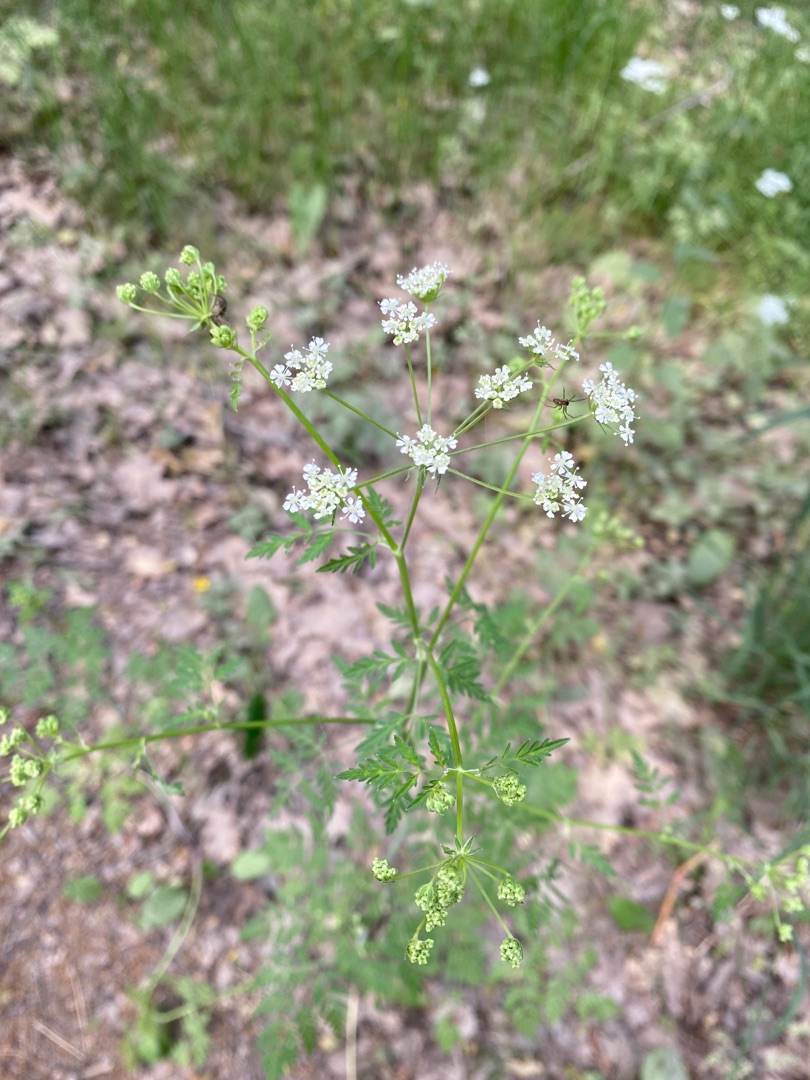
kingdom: Plantae
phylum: Tracheophyta
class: Magnoliopsida
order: Apiales
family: Apiaceae
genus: Conium
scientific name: Conium maculatum
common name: Skarntyde
